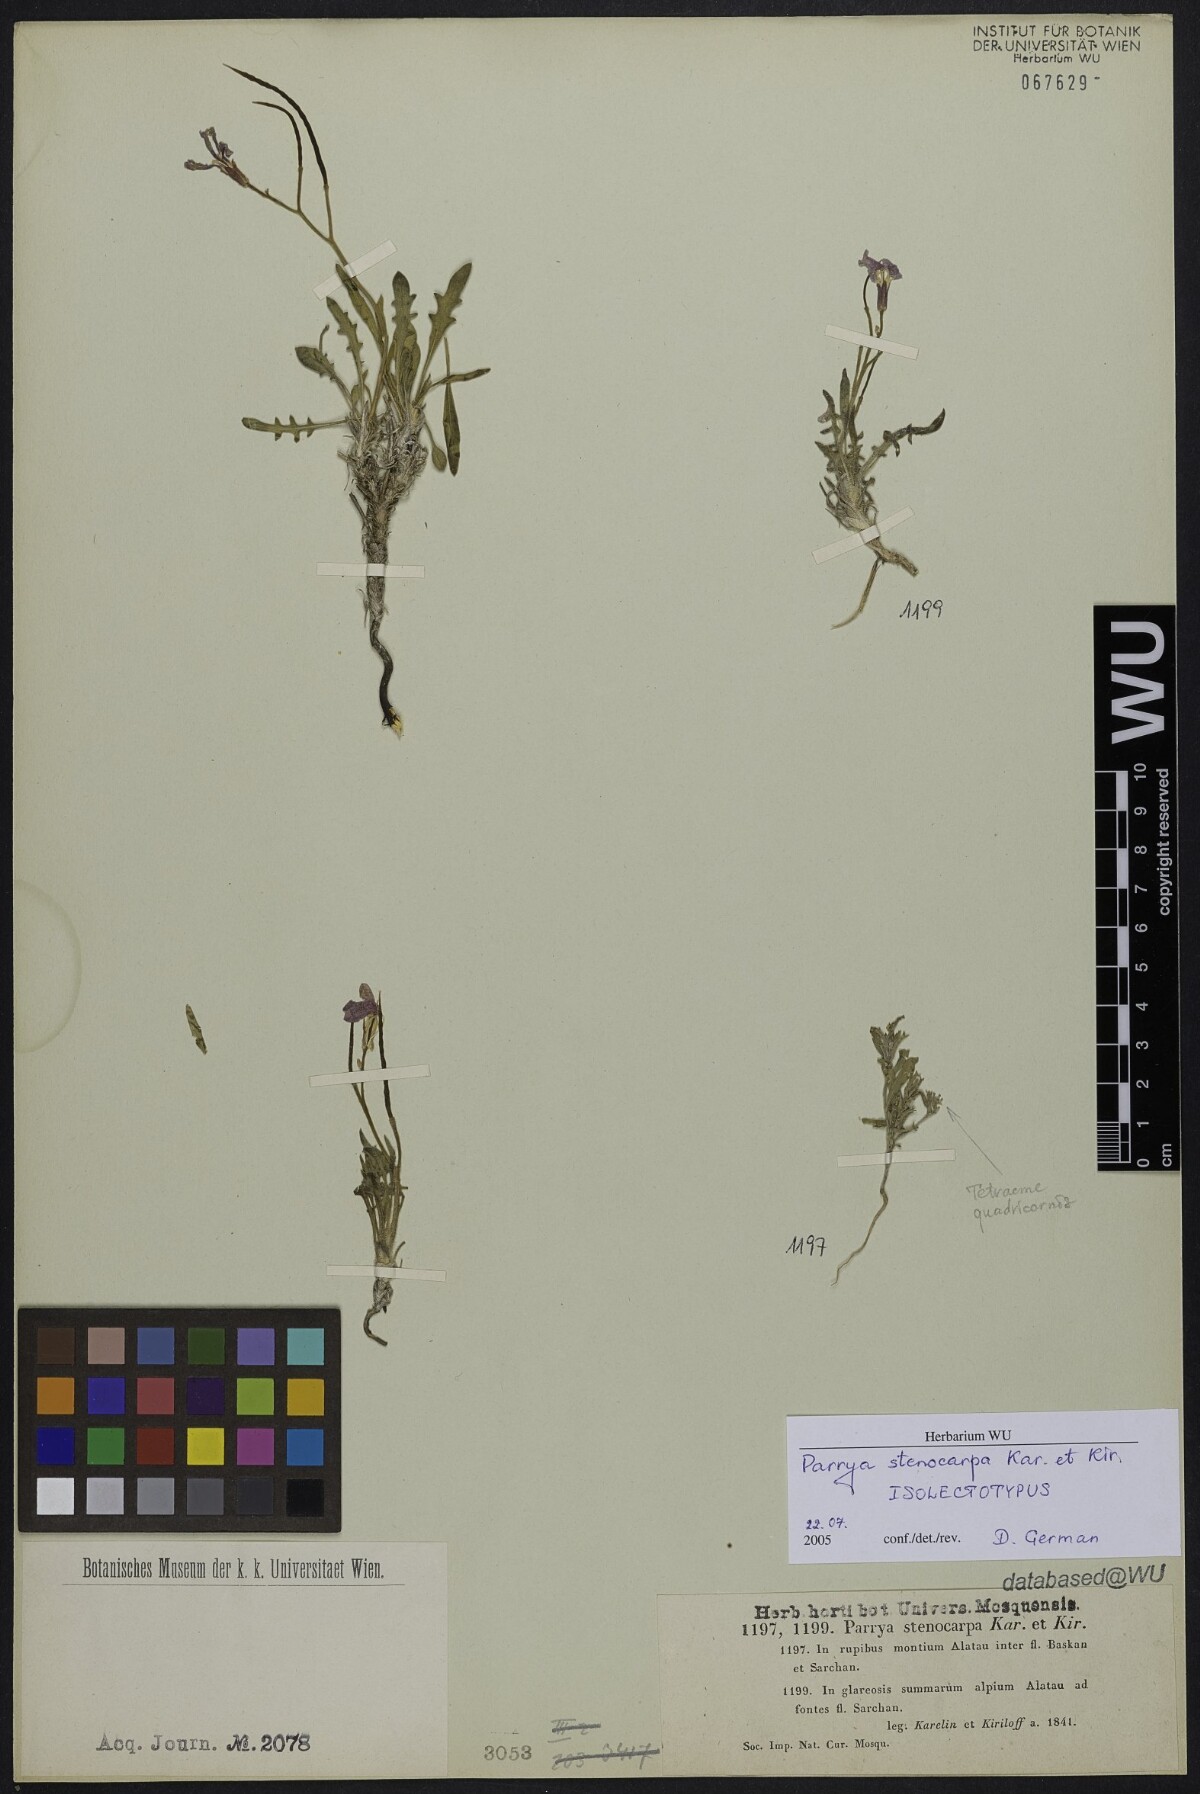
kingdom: Plantae
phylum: Tracheophyta
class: Magnoliopsida
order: Brassicales
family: Brassicaceae
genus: Parrya
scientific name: Parrya stenocarpa
